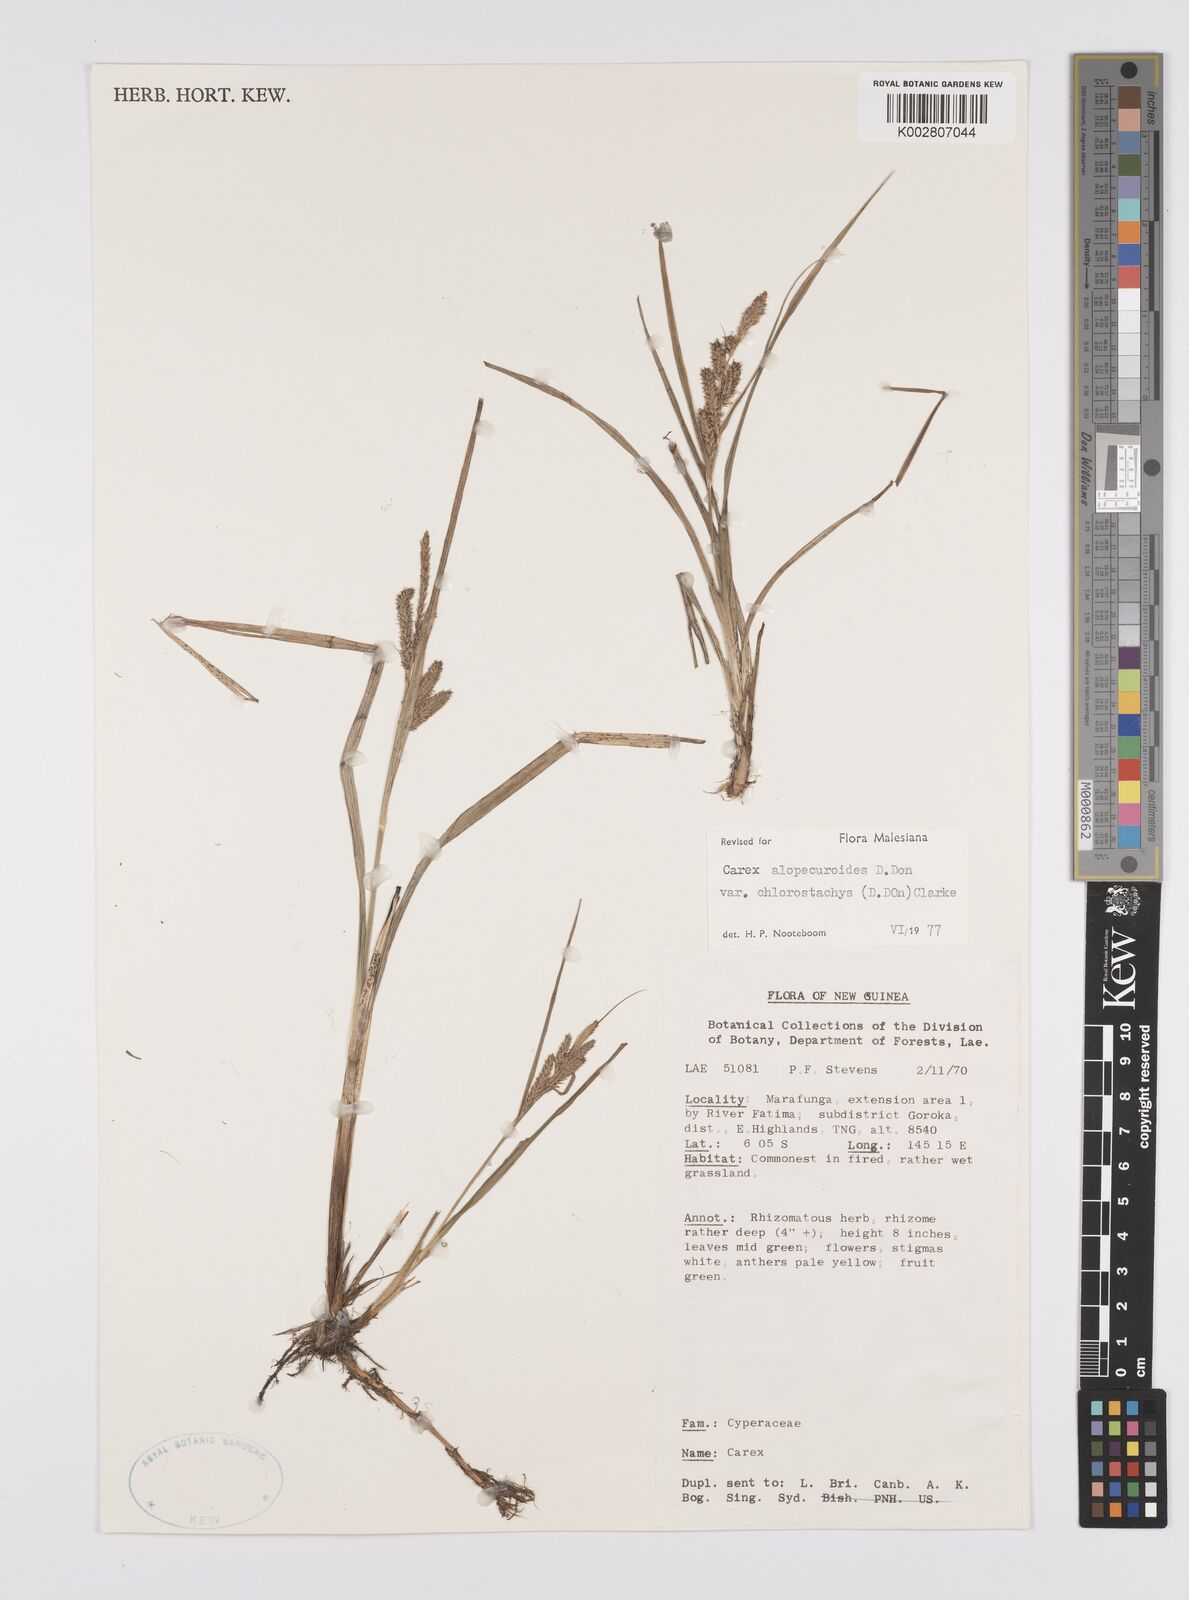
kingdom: Plantae
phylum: Tracheophyta
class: Liliopsida
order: Poales
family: Cyperaceae
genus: Carex
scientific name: Carex alopecuroides
